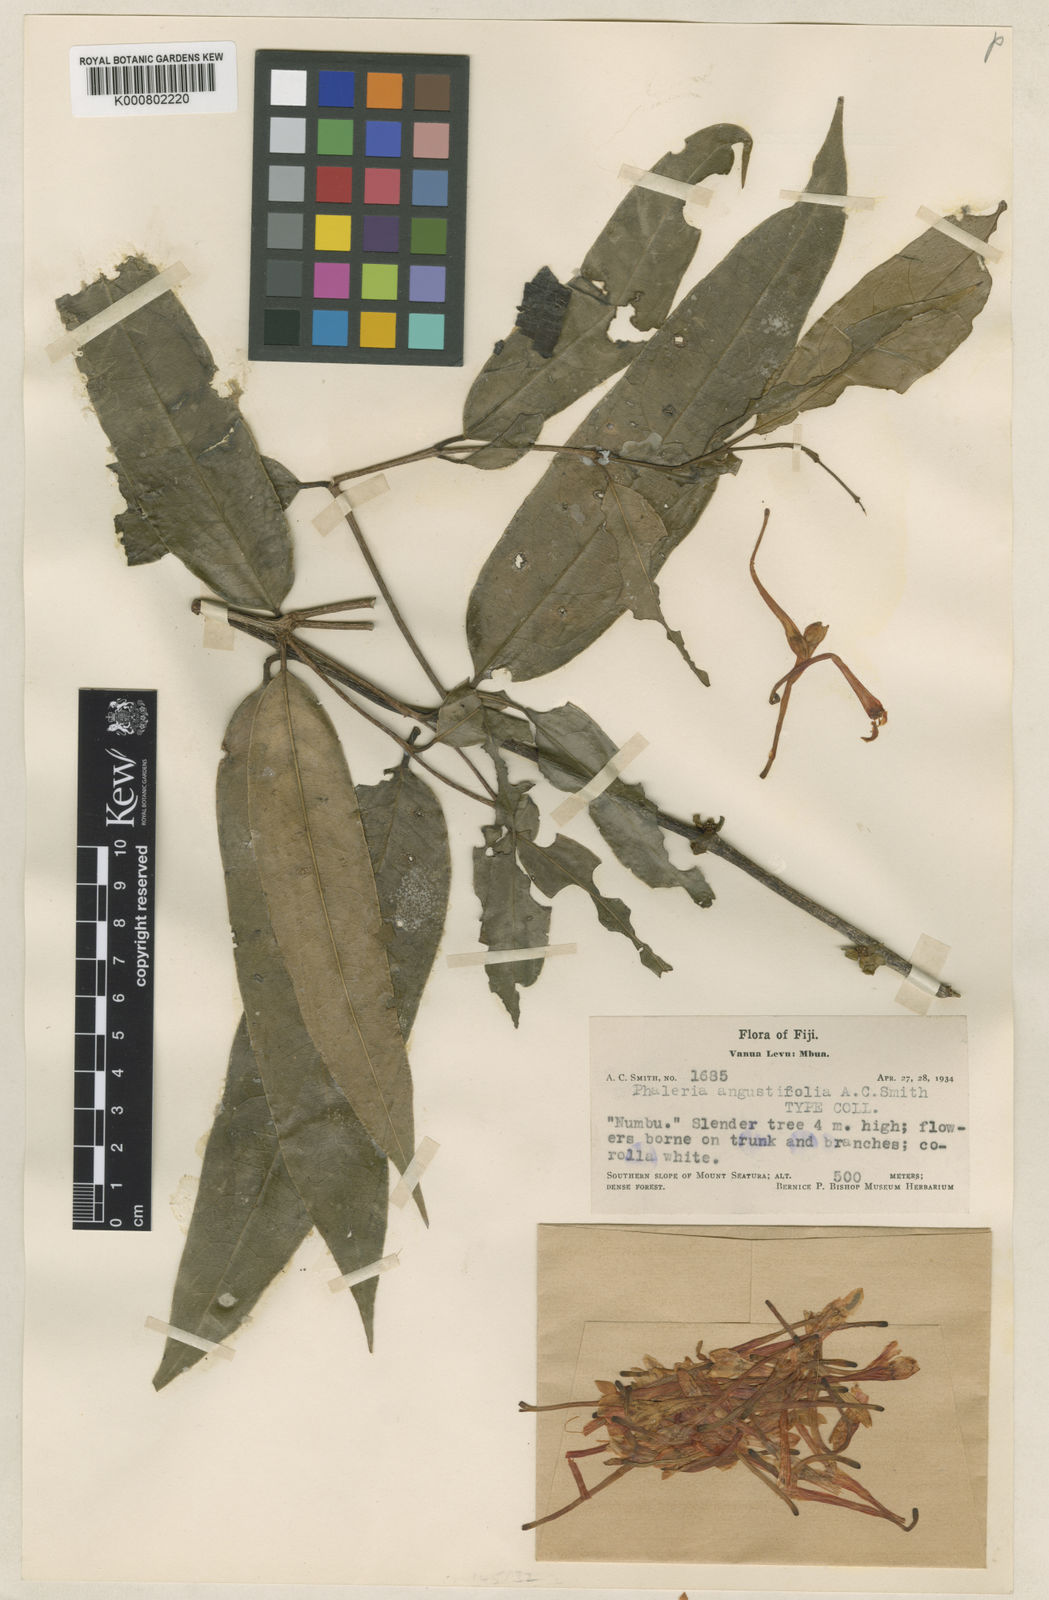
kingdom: Plantae
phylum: Tracheophyta
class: Magnoliopsida
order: Malvales
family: Thymelaeaceae
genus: Phaleria
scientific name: Phaleria angustifolia
